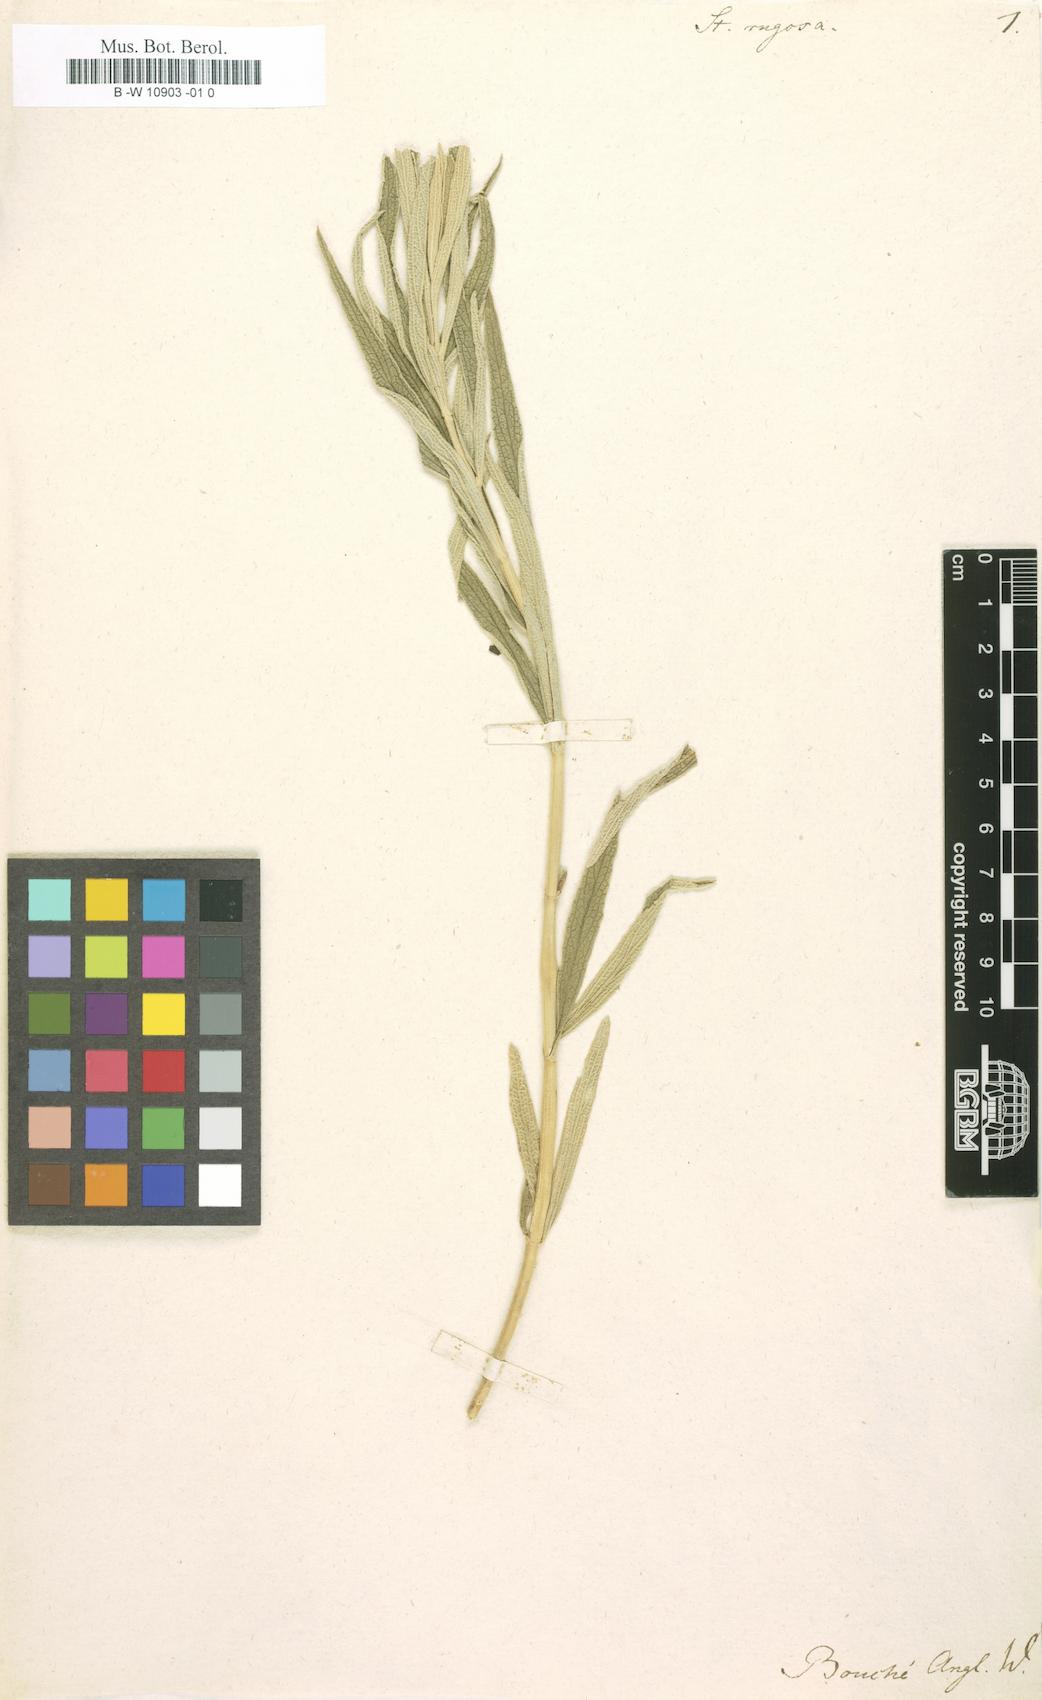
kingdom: Plantae
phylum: Tracheophyta
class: Magnoliopsida
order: Lamiales
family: Lamiaceae
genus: Stachys
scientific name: Stachys rugosa
